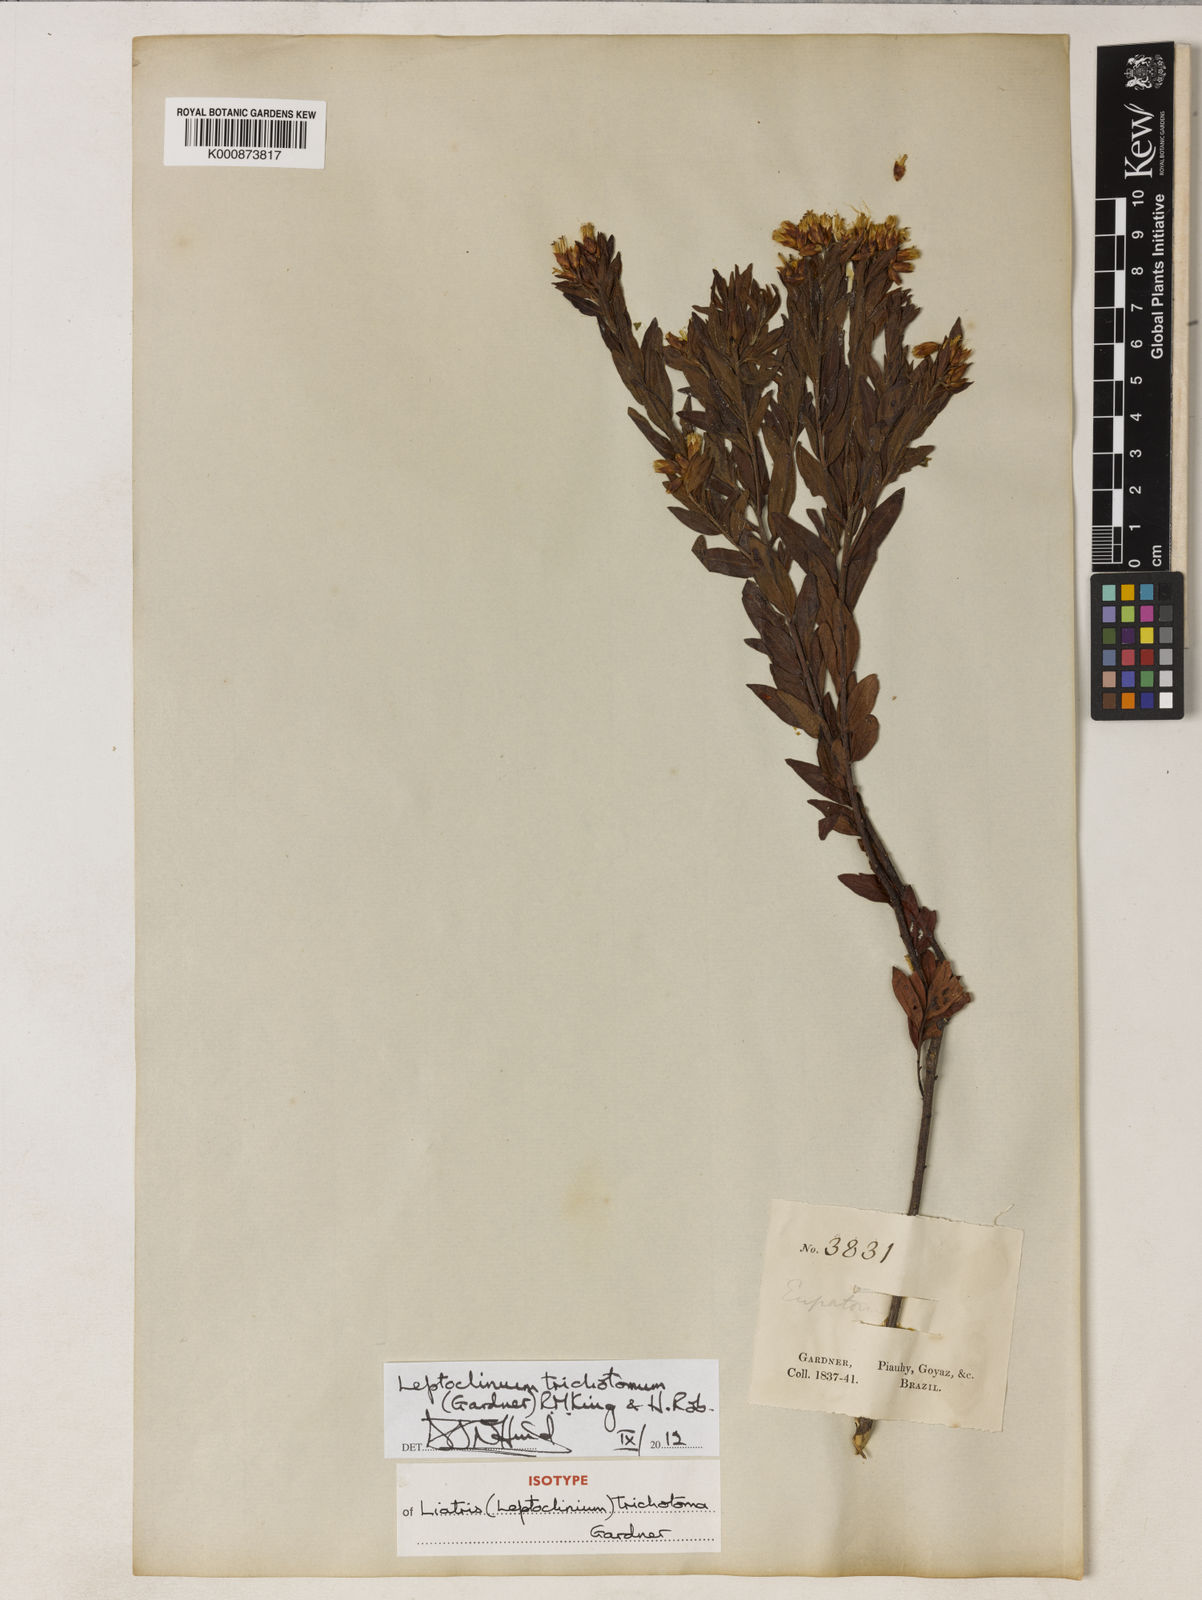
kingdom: Plantae
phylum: Tracheophyta
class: Magnoliopsida
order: Asterales
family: Asteraceae
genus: Leptoclinium
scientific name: Leptoclinium
